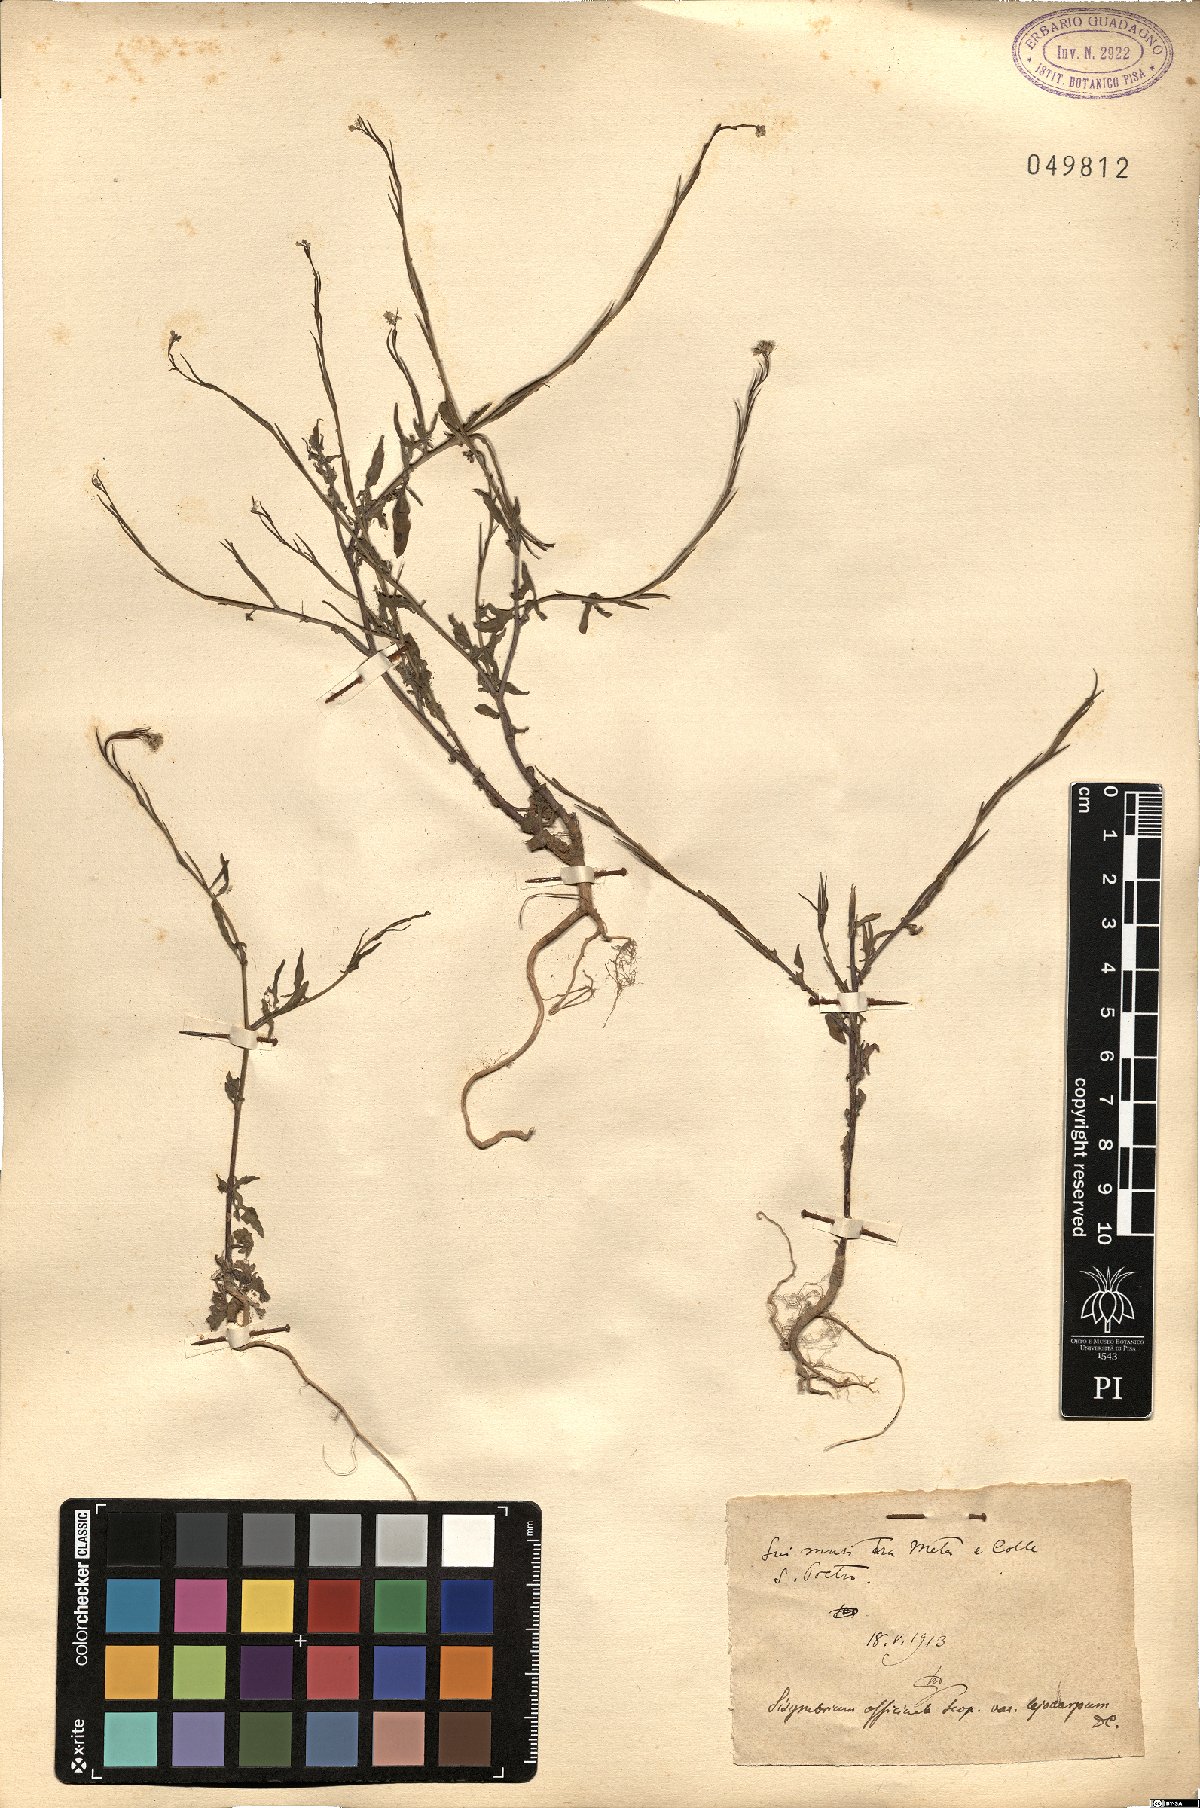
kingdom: Plantae
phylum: Tracheophyta
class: Magnoliopsida
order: Brassicales
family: Brassicaceae
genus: Sisymbrium
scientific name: Sisymbrium officinale
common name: Hedge mustard
